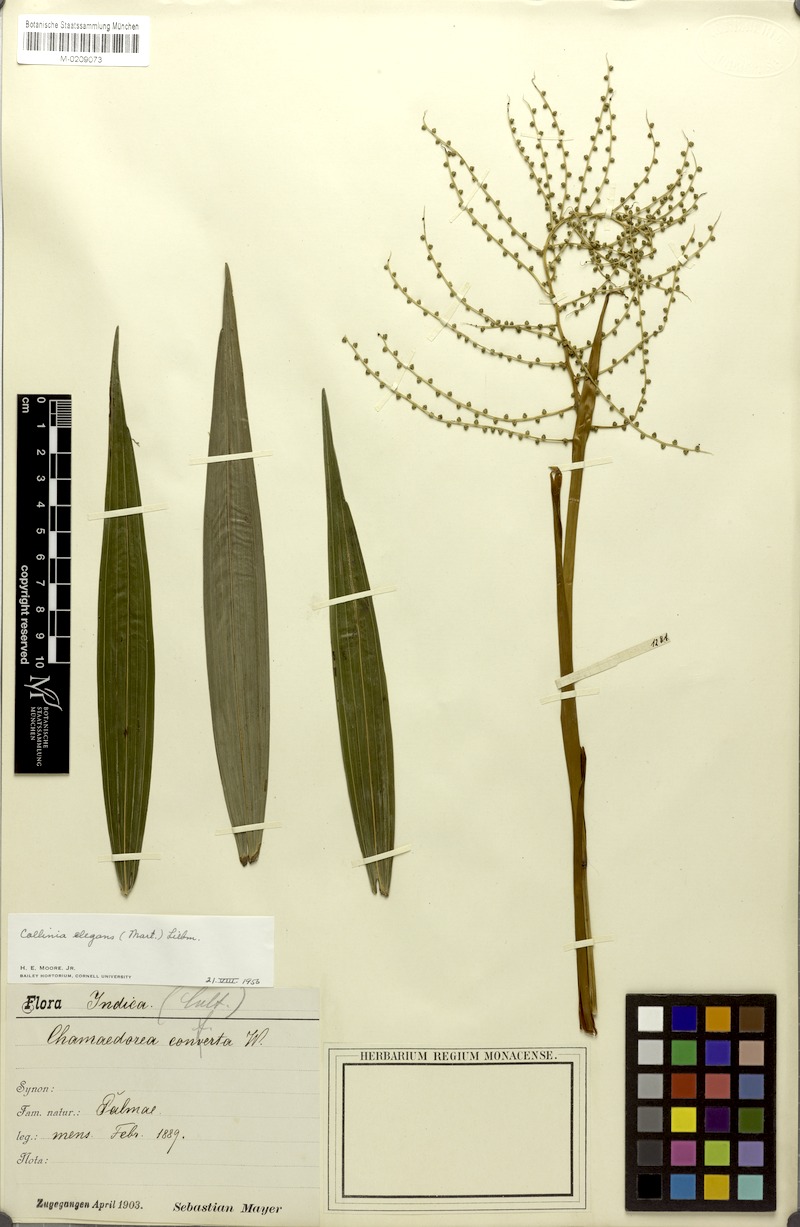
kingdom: Plantae
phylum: Tracheophyta
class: Liliopsida
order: Arecales
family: Arecaceae
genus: Chamaedorea
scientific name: Chamaedorea elegans
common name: Good-luck palm
